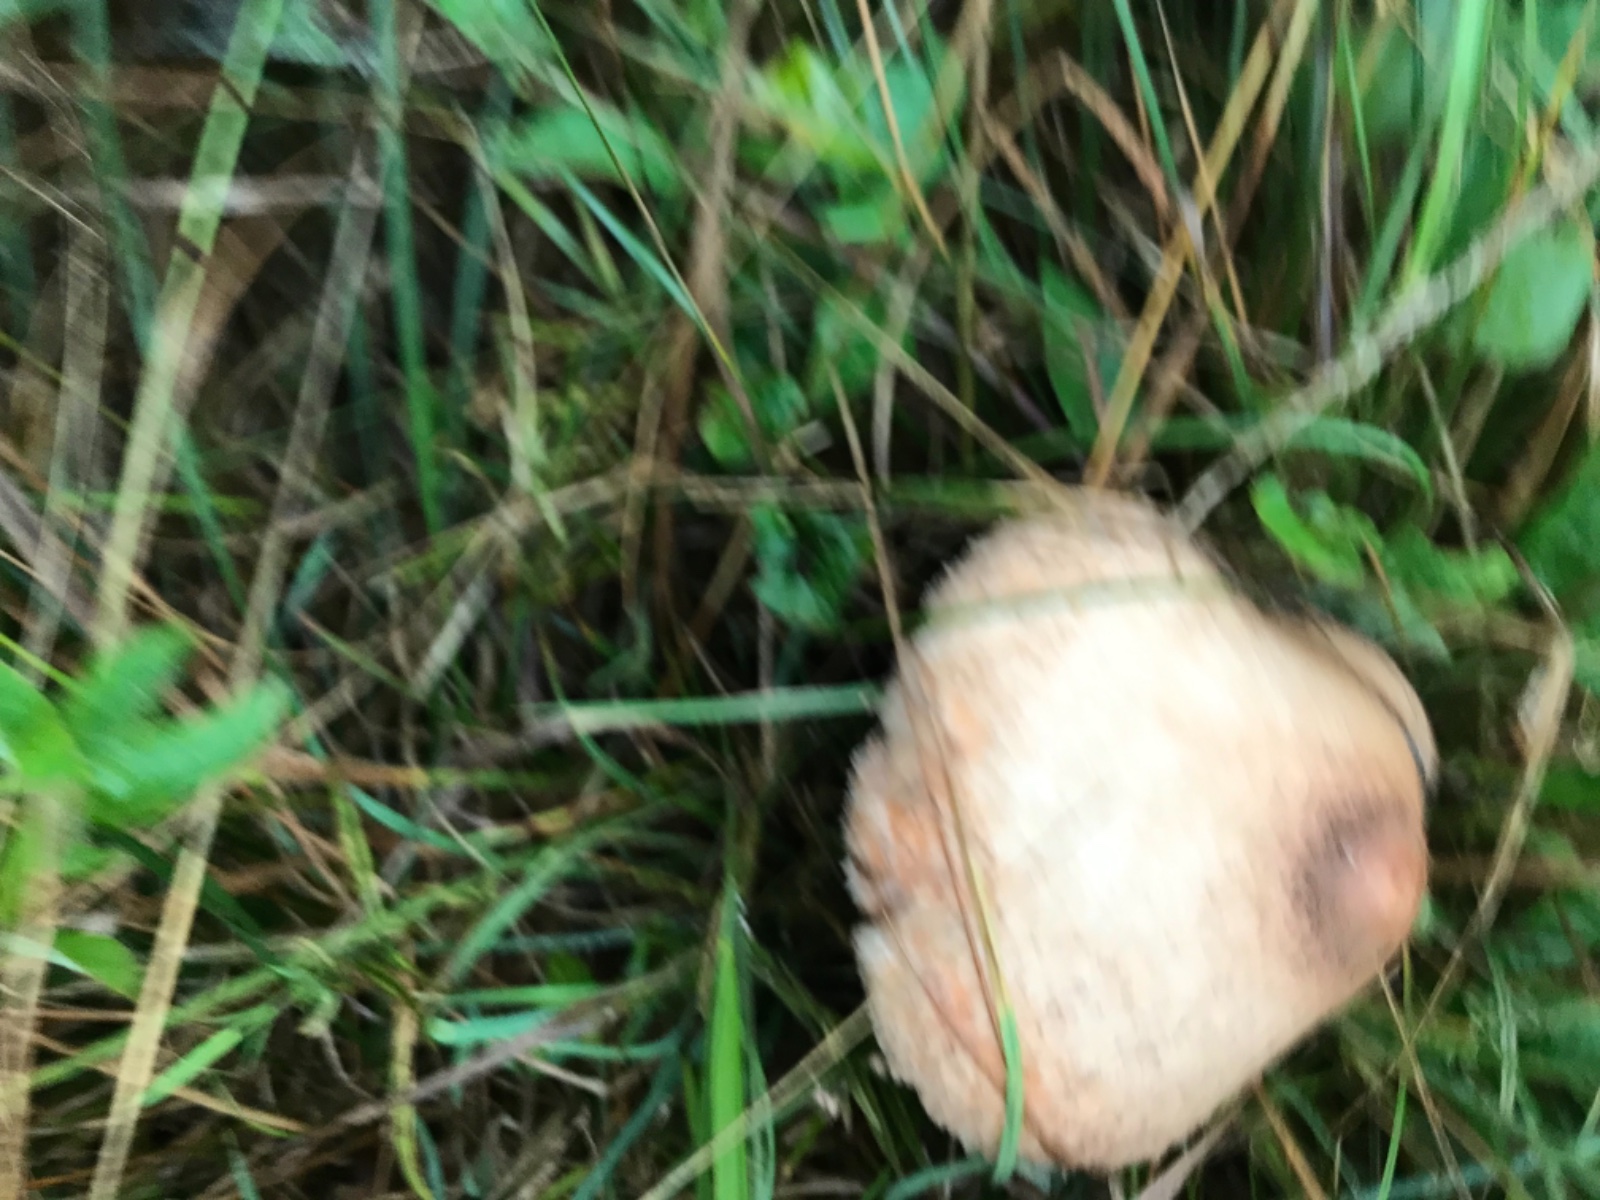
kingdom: Fungi
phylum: Basidiomycota
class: Agaricomycetes
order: Agaricales
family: Agaricaceae
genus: Macrolepiota
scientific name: Macrolepiota procera
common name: stor kæmpeparasolhat
